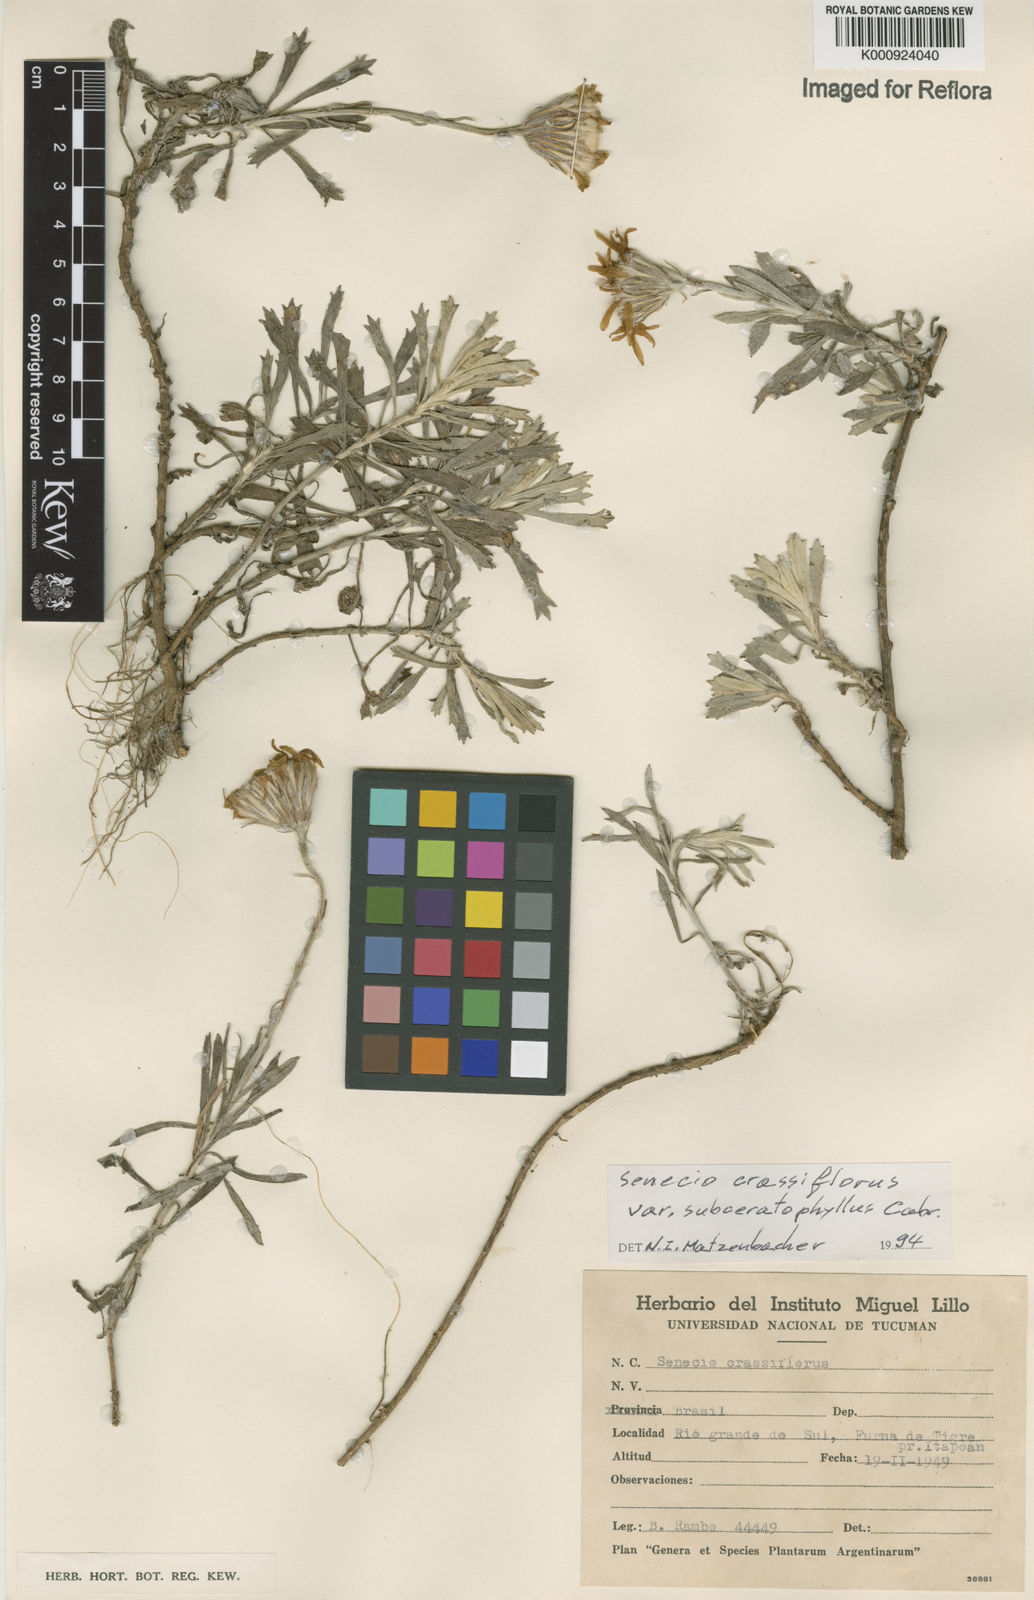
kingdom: Plantae
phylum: Tracheophyta
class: Magnoliopsida
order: Asterales
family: Asteraceae
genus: Senecio
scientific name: Senecio crassiflorus
